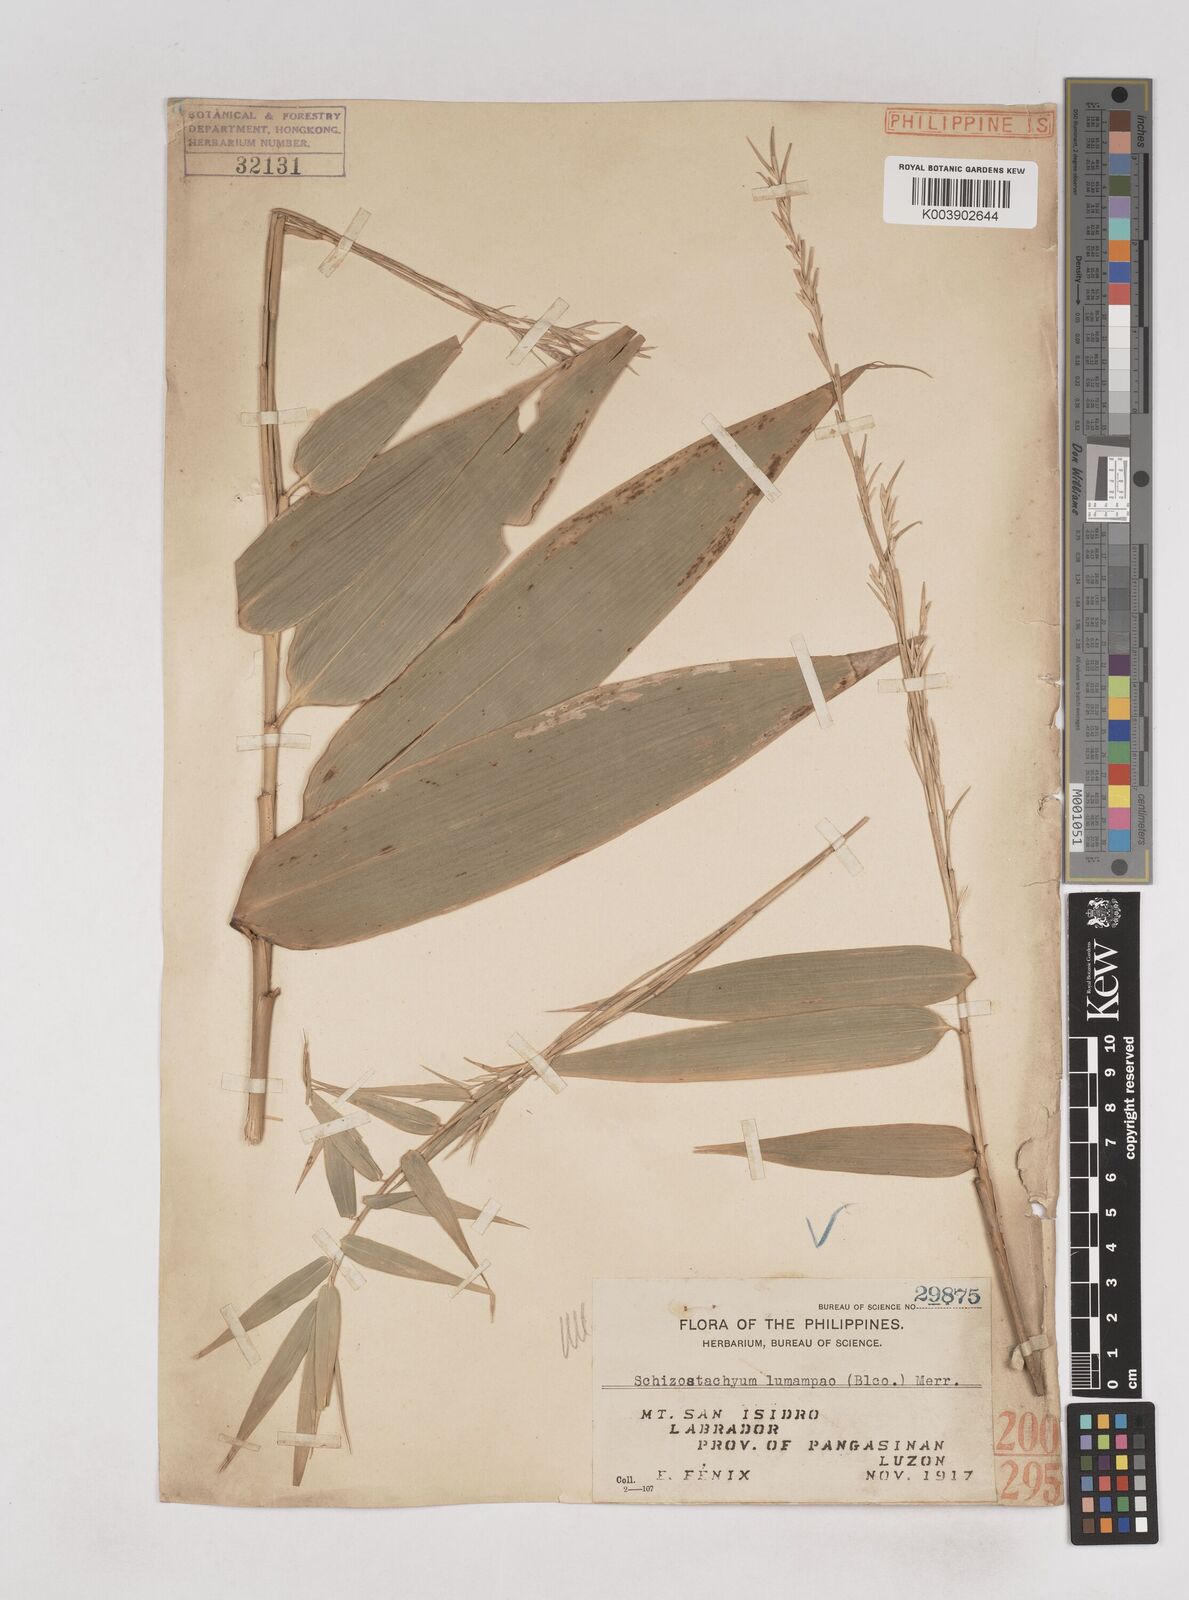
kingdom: Plantae
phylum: Tracheophyta
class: Liliopsida
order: Poales
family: Poaceae
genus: Schizostachyum
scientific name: Schizostachyum lumampao
